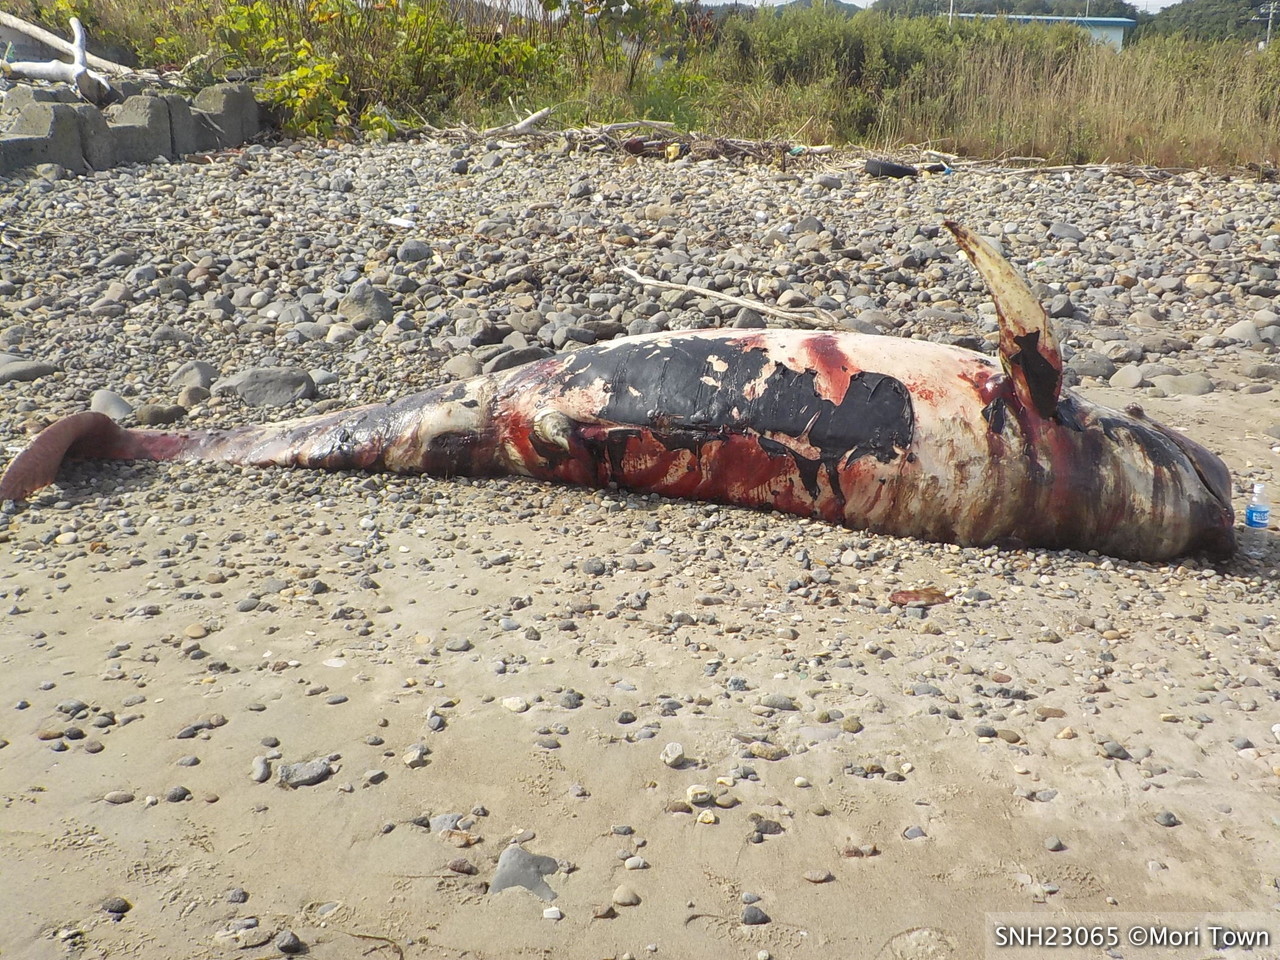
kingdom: Animalia
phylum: Chordata
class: Mammalia
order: Cetacea
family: Delphinidae
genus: Globicephala
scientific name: Globicephala macrorhynchus
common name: Short-finned pilot whale
